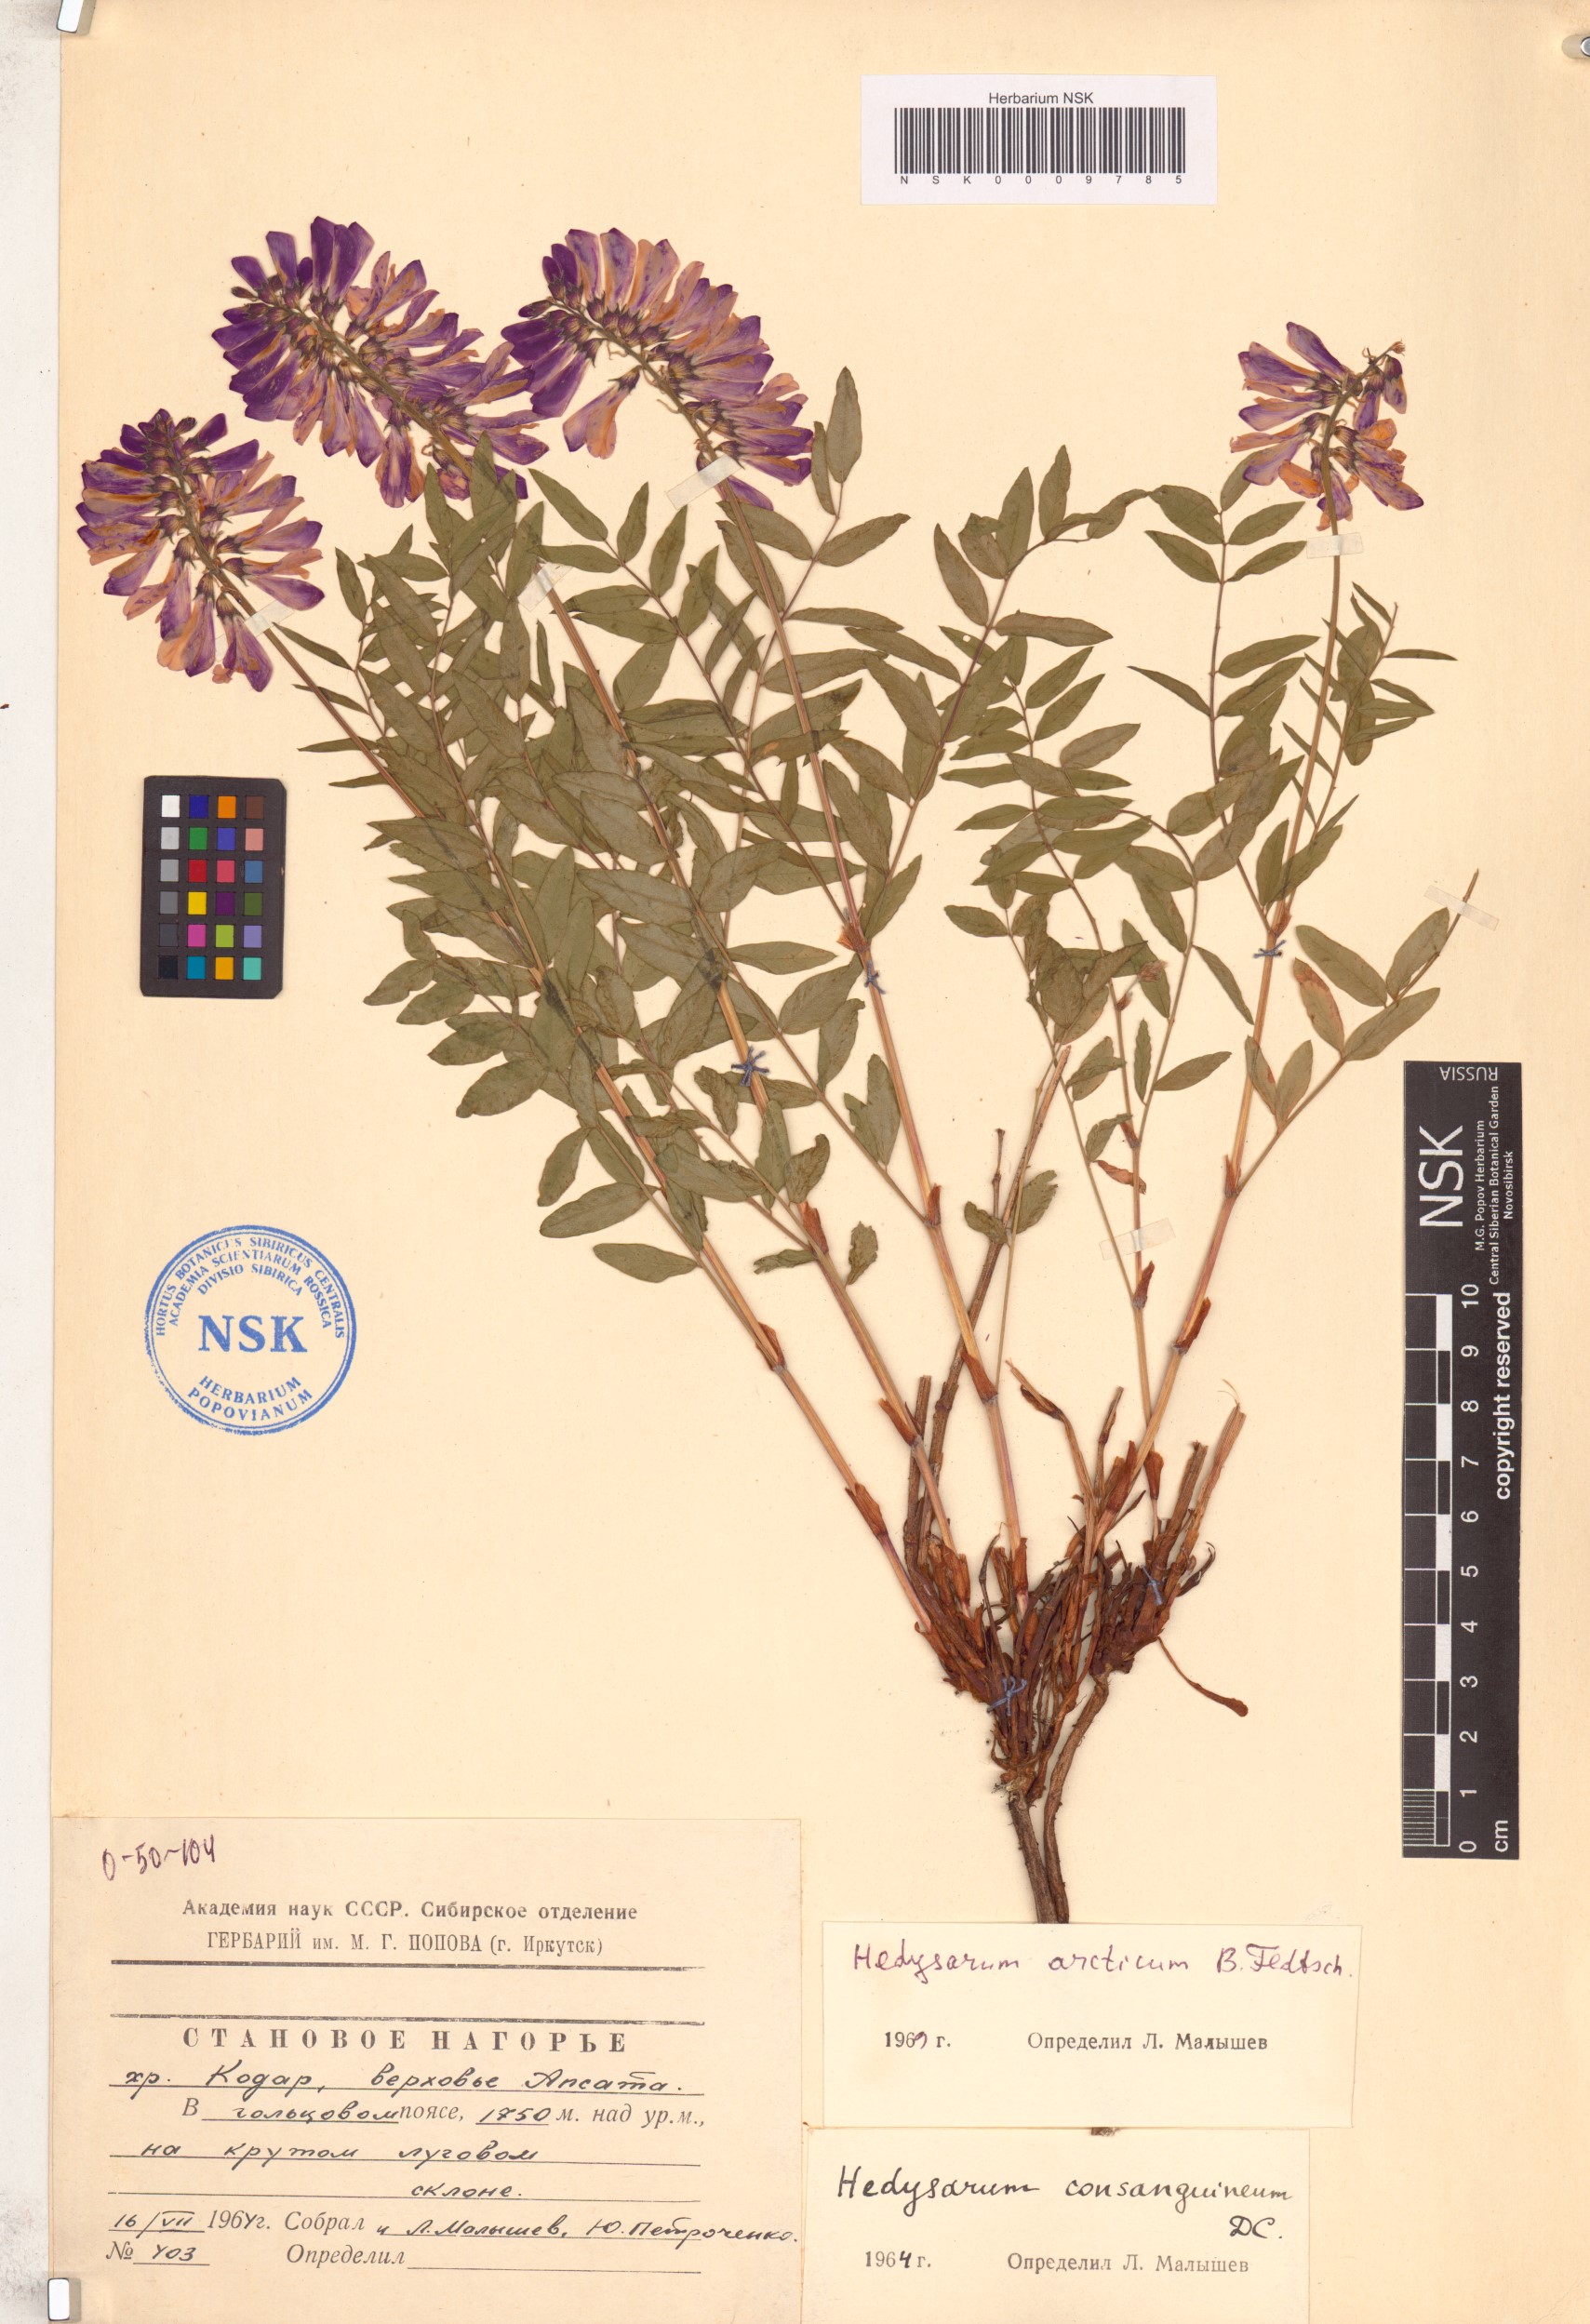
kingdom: Plantae
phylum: Tracheophyta
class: Magnoliopsida
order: Fabales
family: Fabaceae
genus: Hedysarum
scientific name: Hedysarum hedysaroides
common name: Alpine french-honeysuckle
